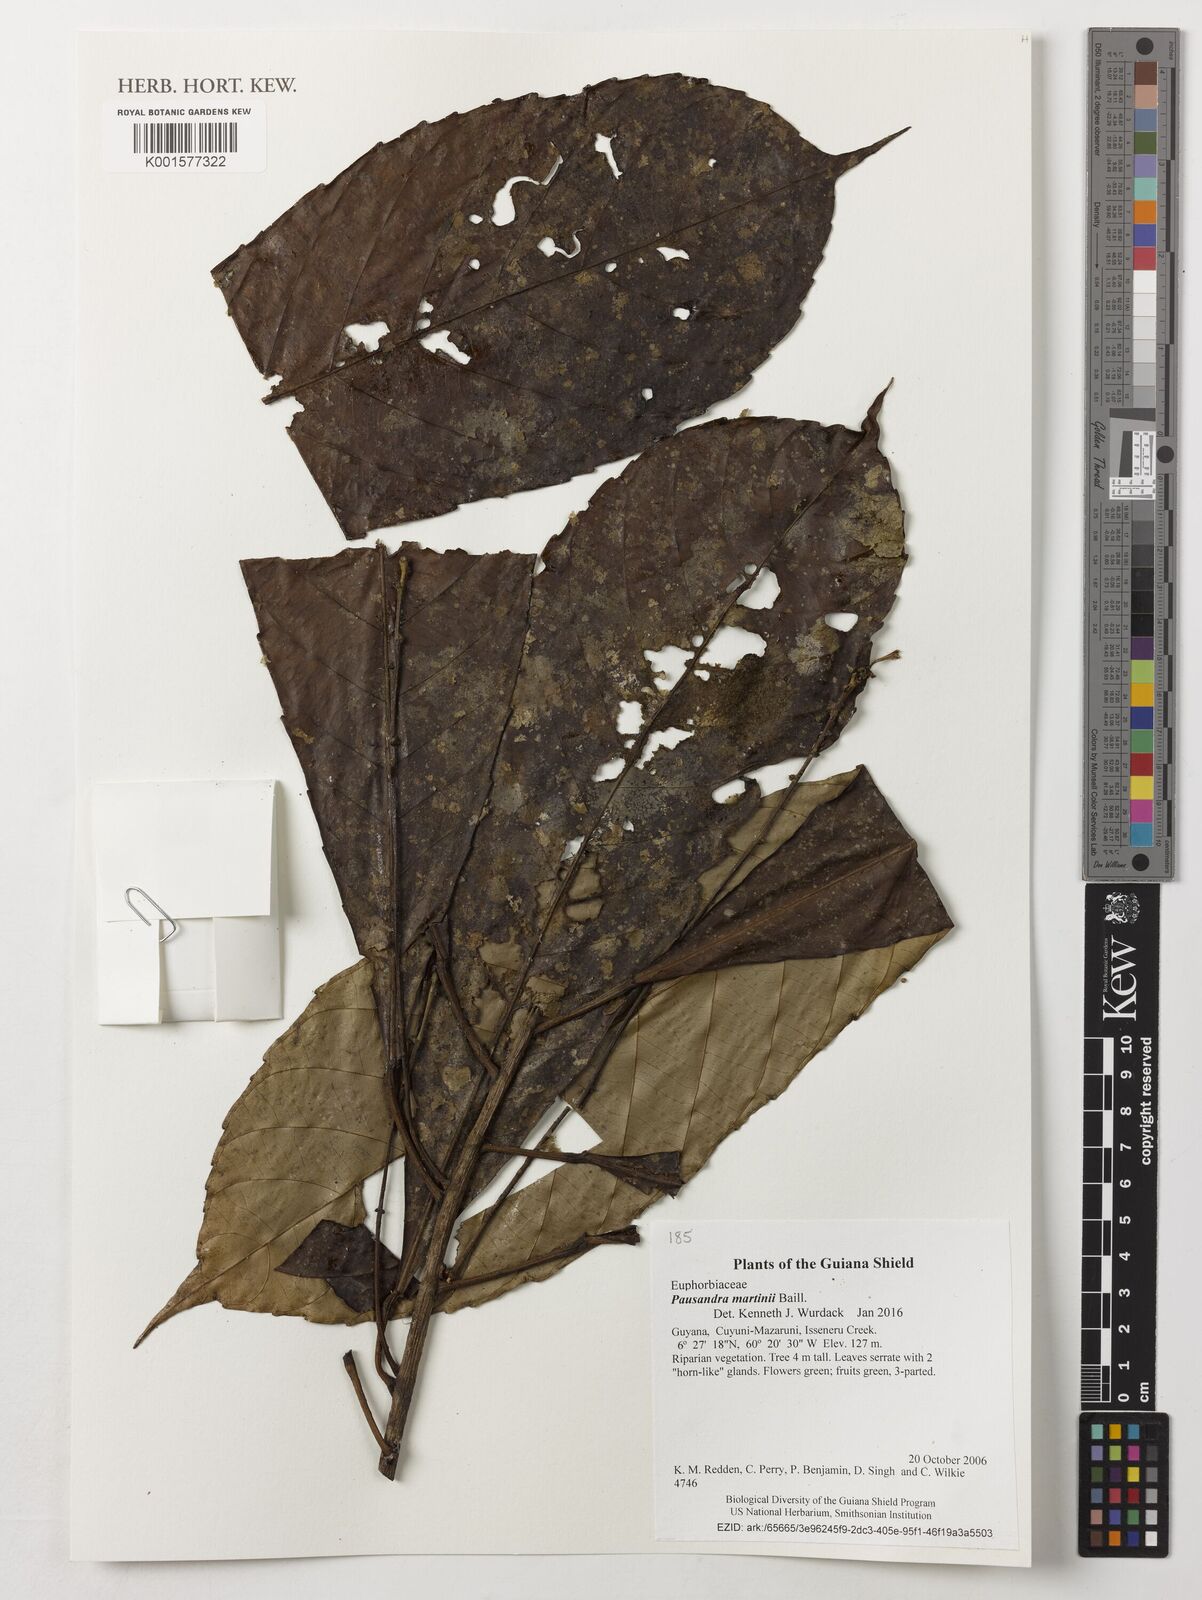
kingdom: Plantae
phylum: Tracheophyta
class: Magnoliopsida
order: Malpighiales
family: Euphorbiaceae
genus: Pausandra
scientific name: Pausandra martini
